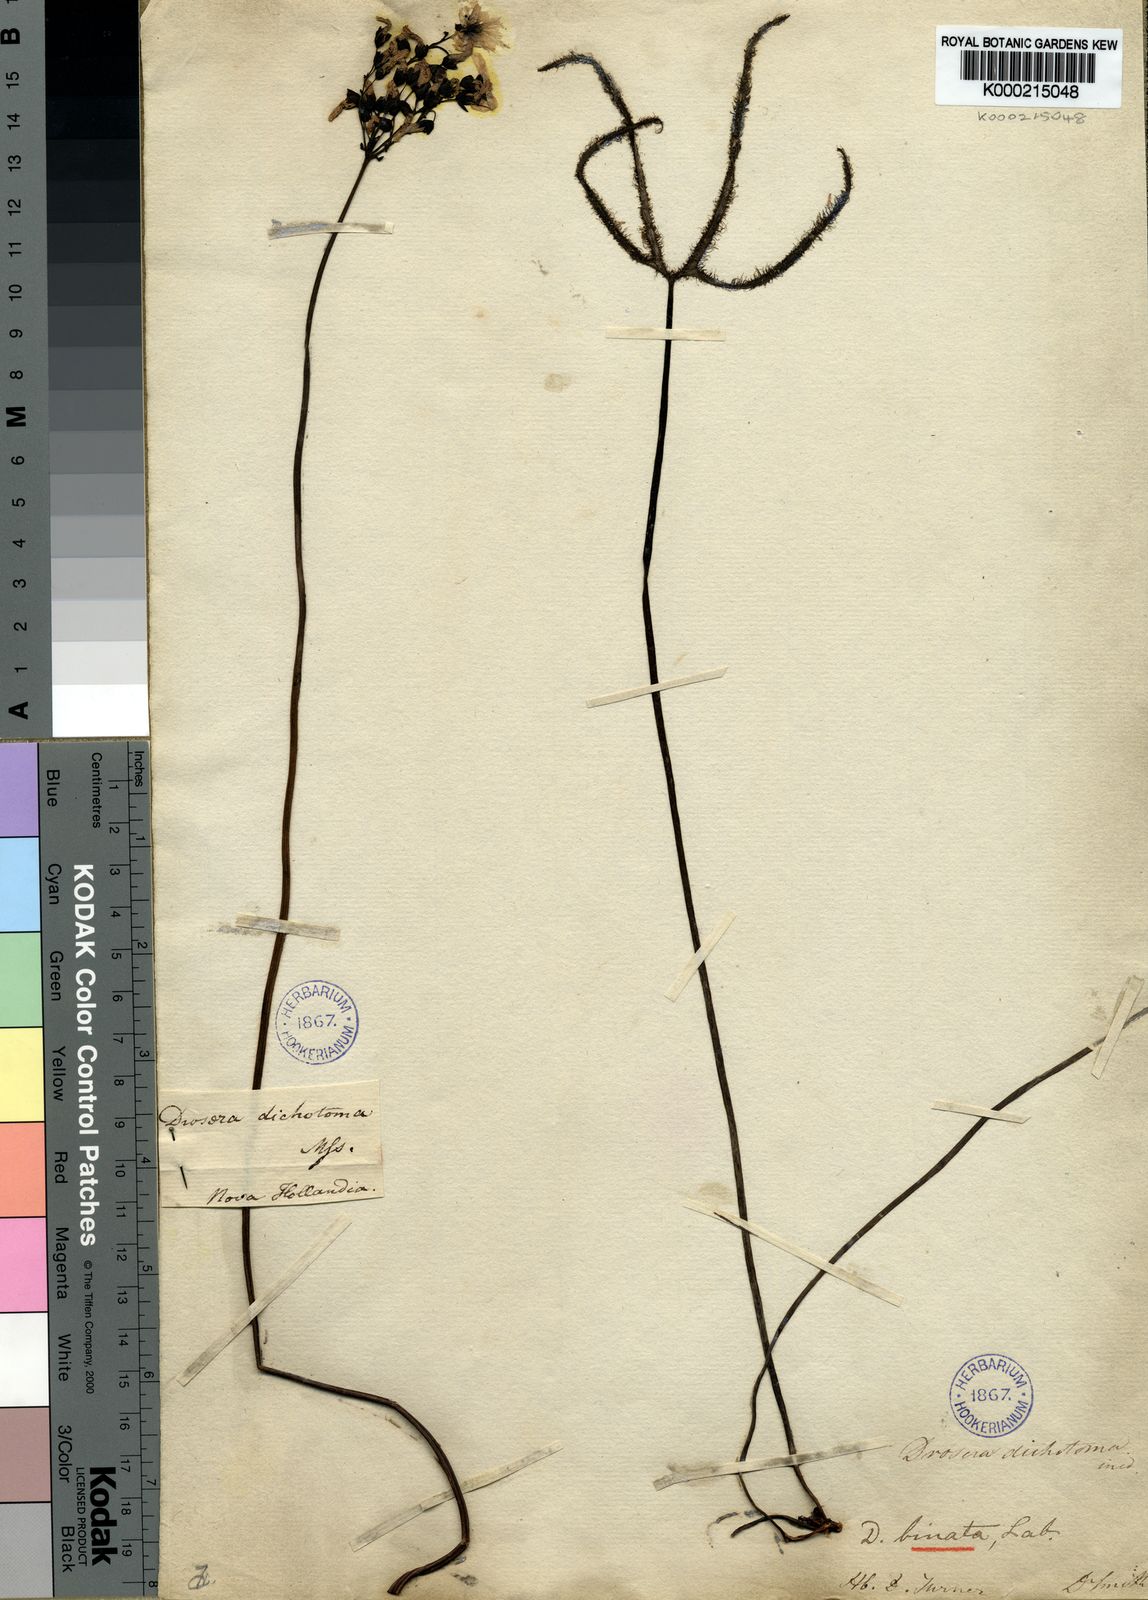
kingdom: Plantae
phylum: Tracheophyta
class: Magnoliopsida
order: Caryophyllales
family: Droseraceae
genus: Drosera
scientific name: Drosera binata
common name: Forked sundew
